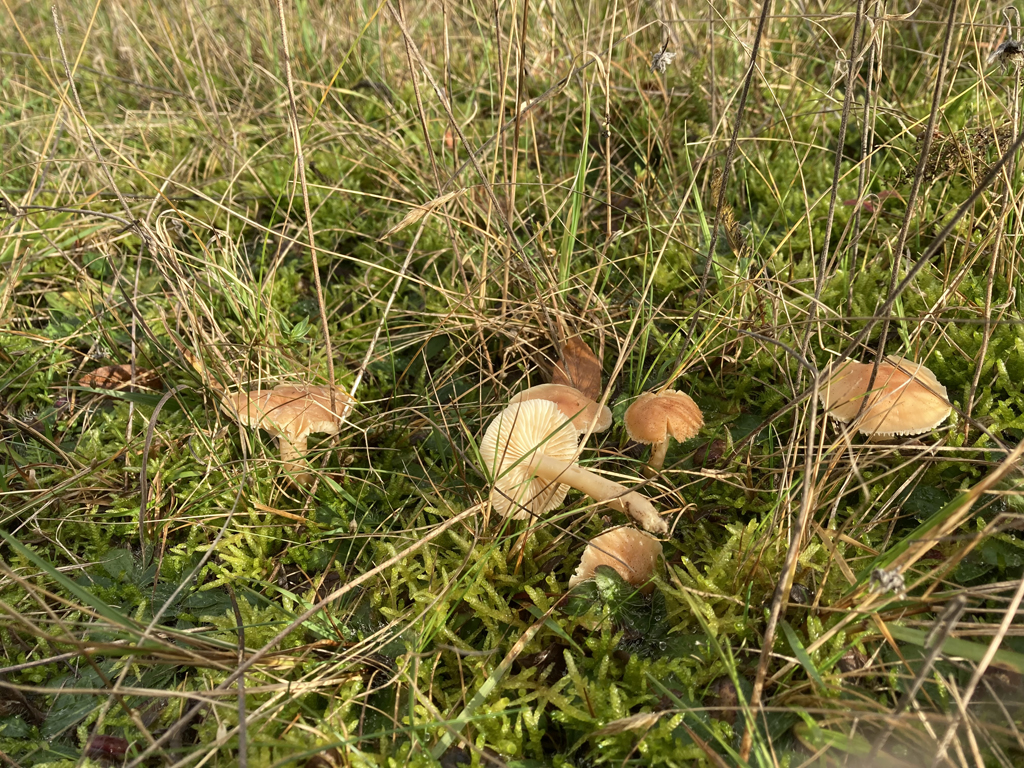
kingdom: Fungi
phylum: Basidiomycota
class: Agaricomycetes
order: Agaricales
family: Hygrophoraceae
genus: Cuphophyllus
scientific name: Cuphophyllus pratensis
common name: eng-vokshat
